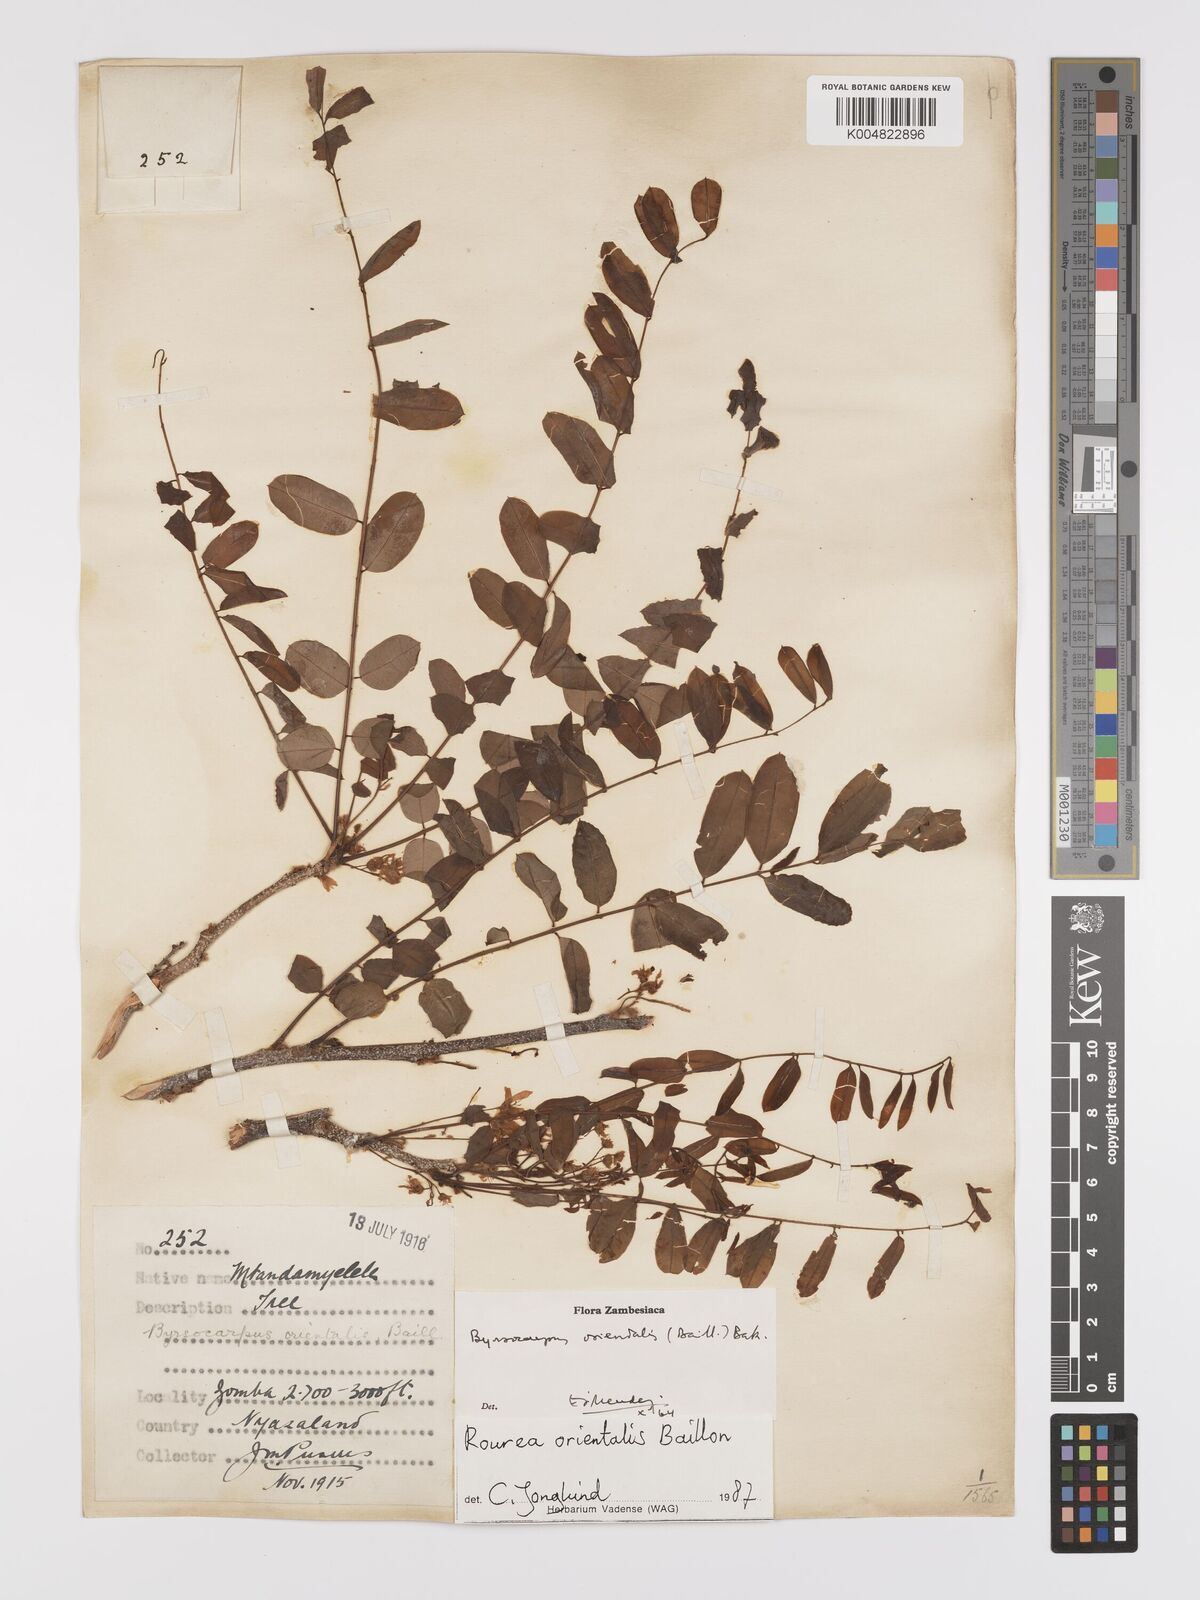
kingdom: Plantae
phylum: Tracheophyta
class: Magnoliopsida
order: Oxalidales
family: Connaraceae
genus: Rourea
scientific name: Rourea orientalis
